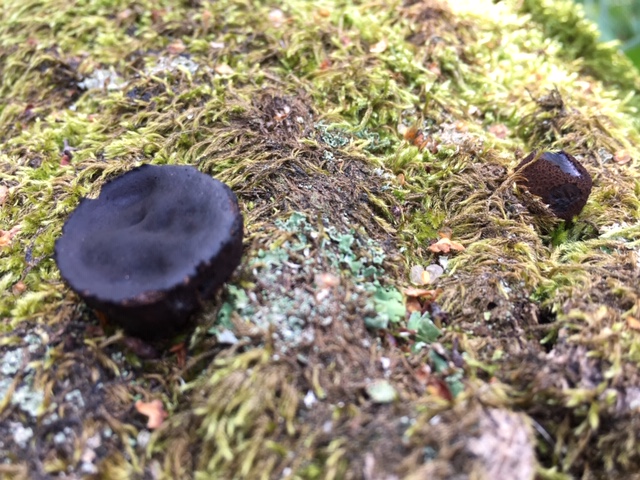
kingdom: Fungi
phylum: Ascomycota
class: Leotiomycetes
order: Phacidiales
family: Phacidiaceae
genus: Bulgaria
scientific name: Bulgaria inquinans
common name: afsmittende topsvamp
